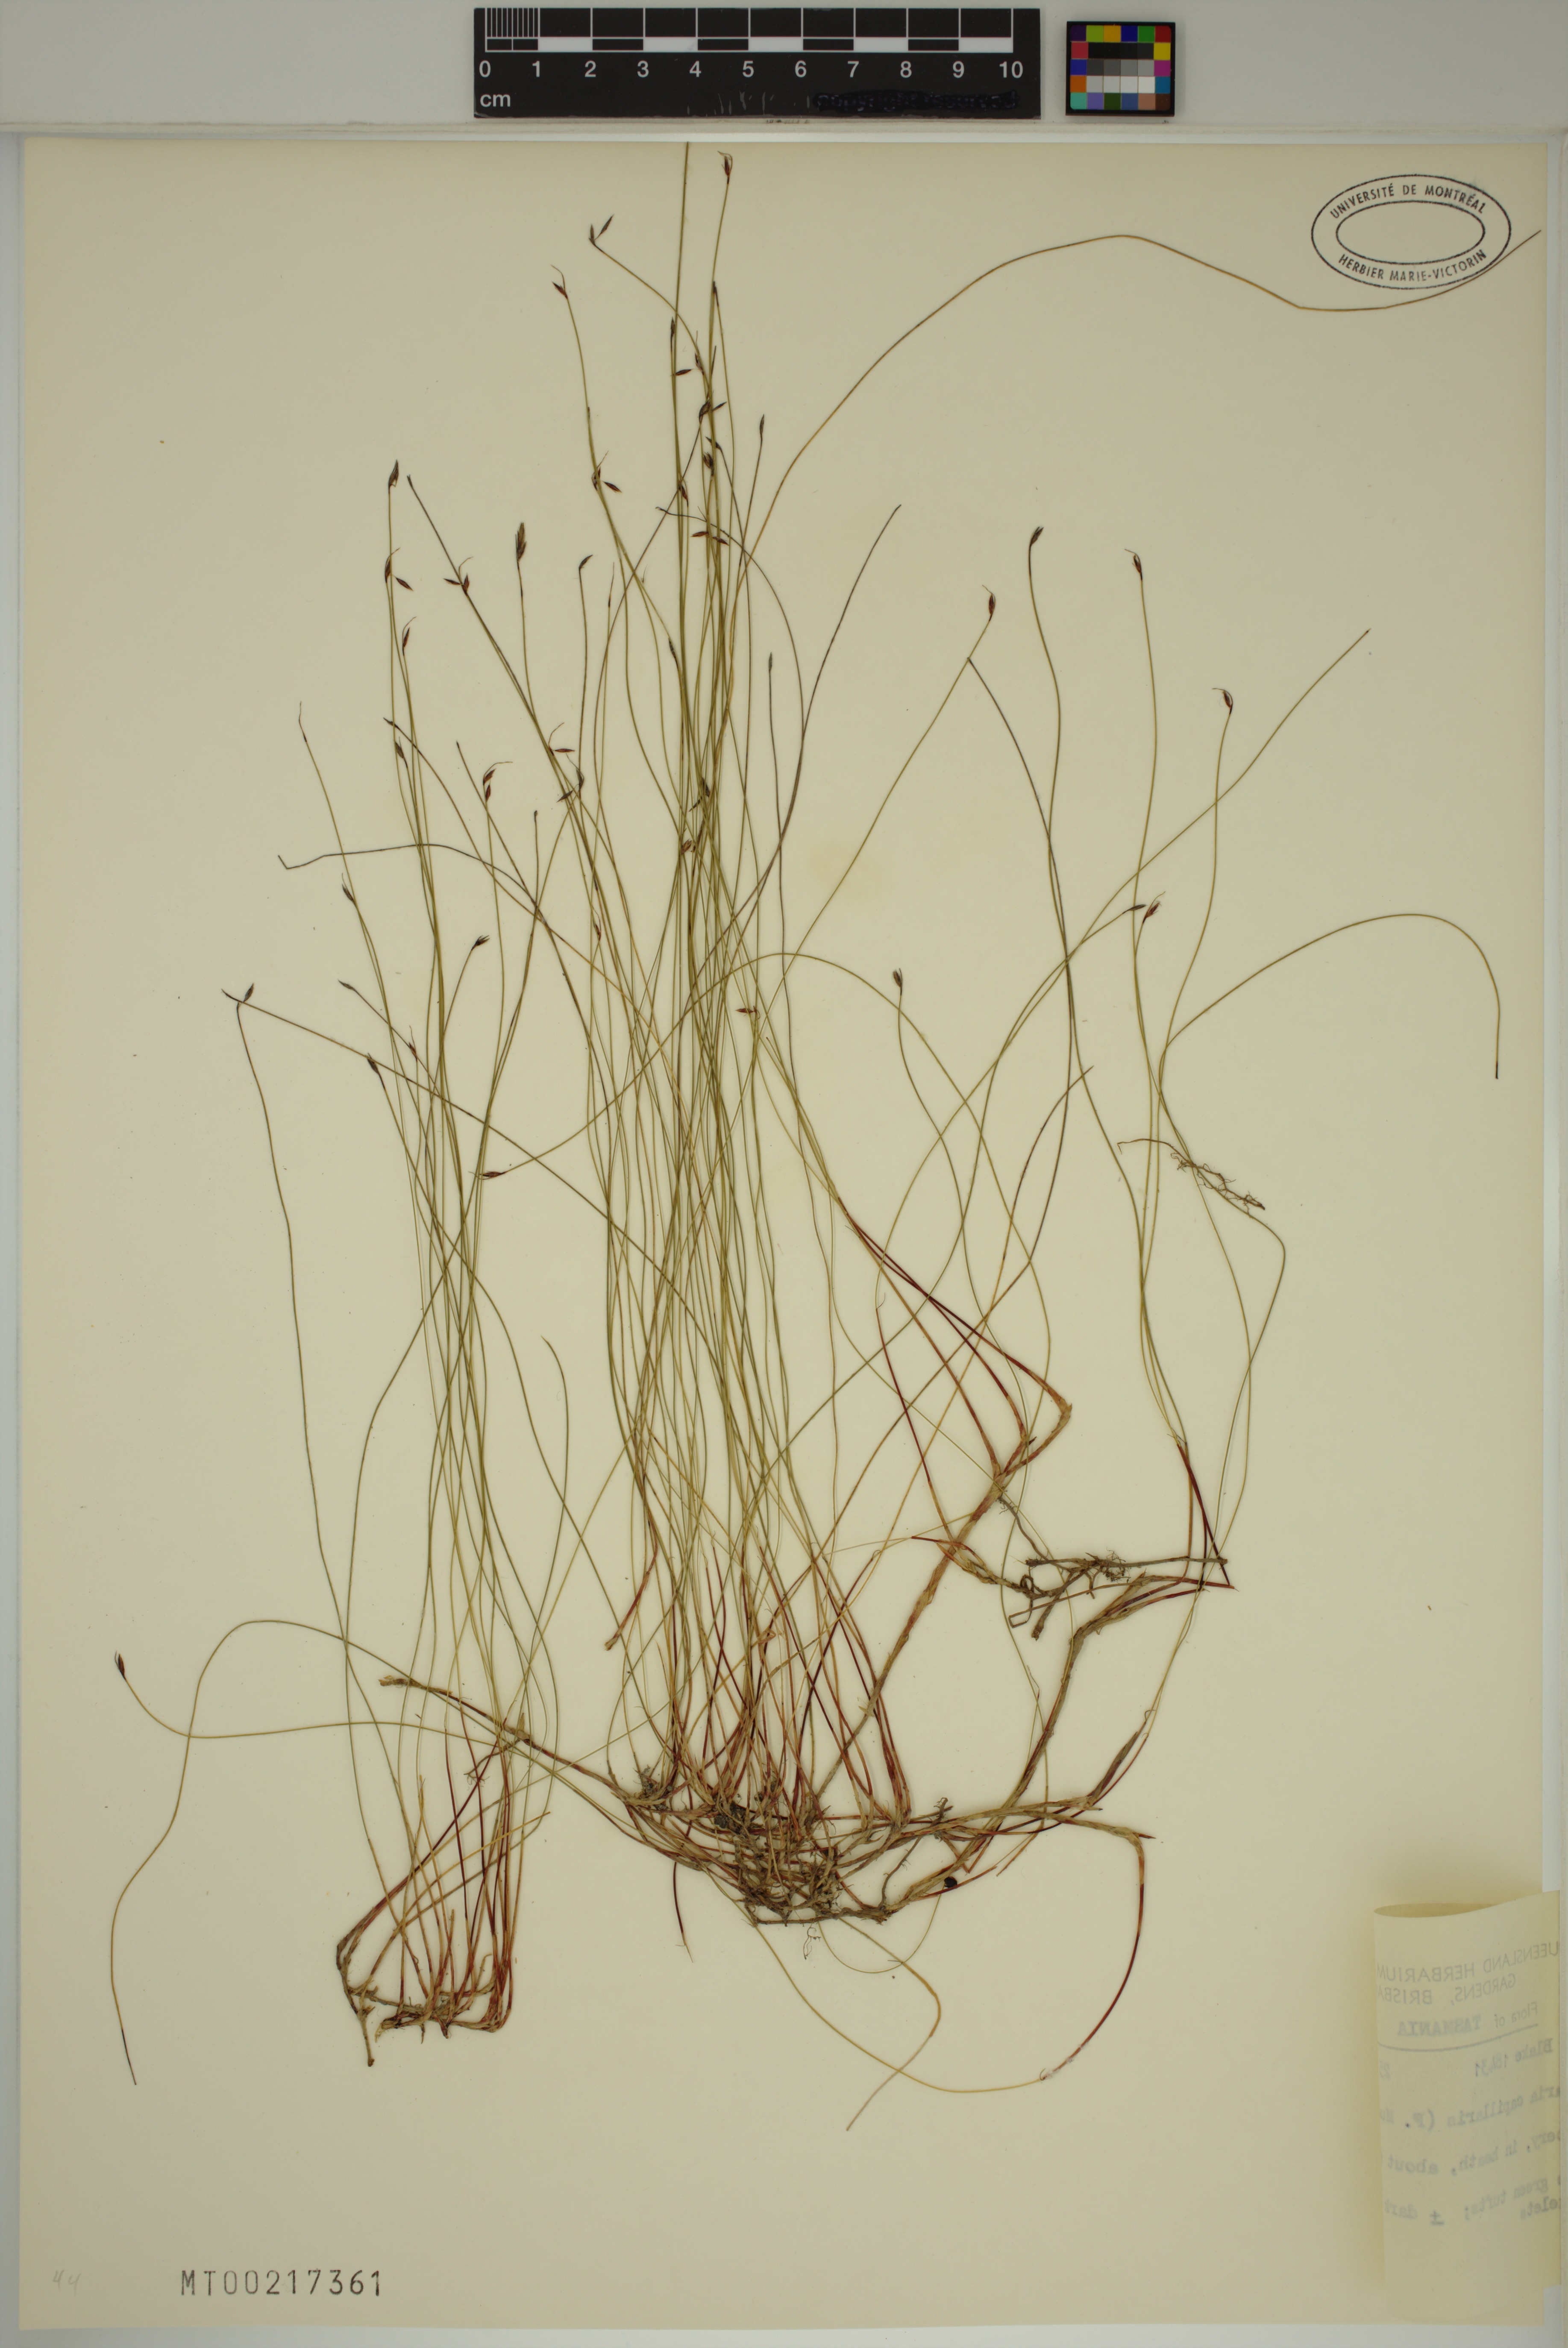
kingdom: Plantae
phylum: Tracheophyta
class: Liliopsida
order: Poales
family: Cyperaceae
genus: Tetraria
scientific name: Tetraria capillaris
